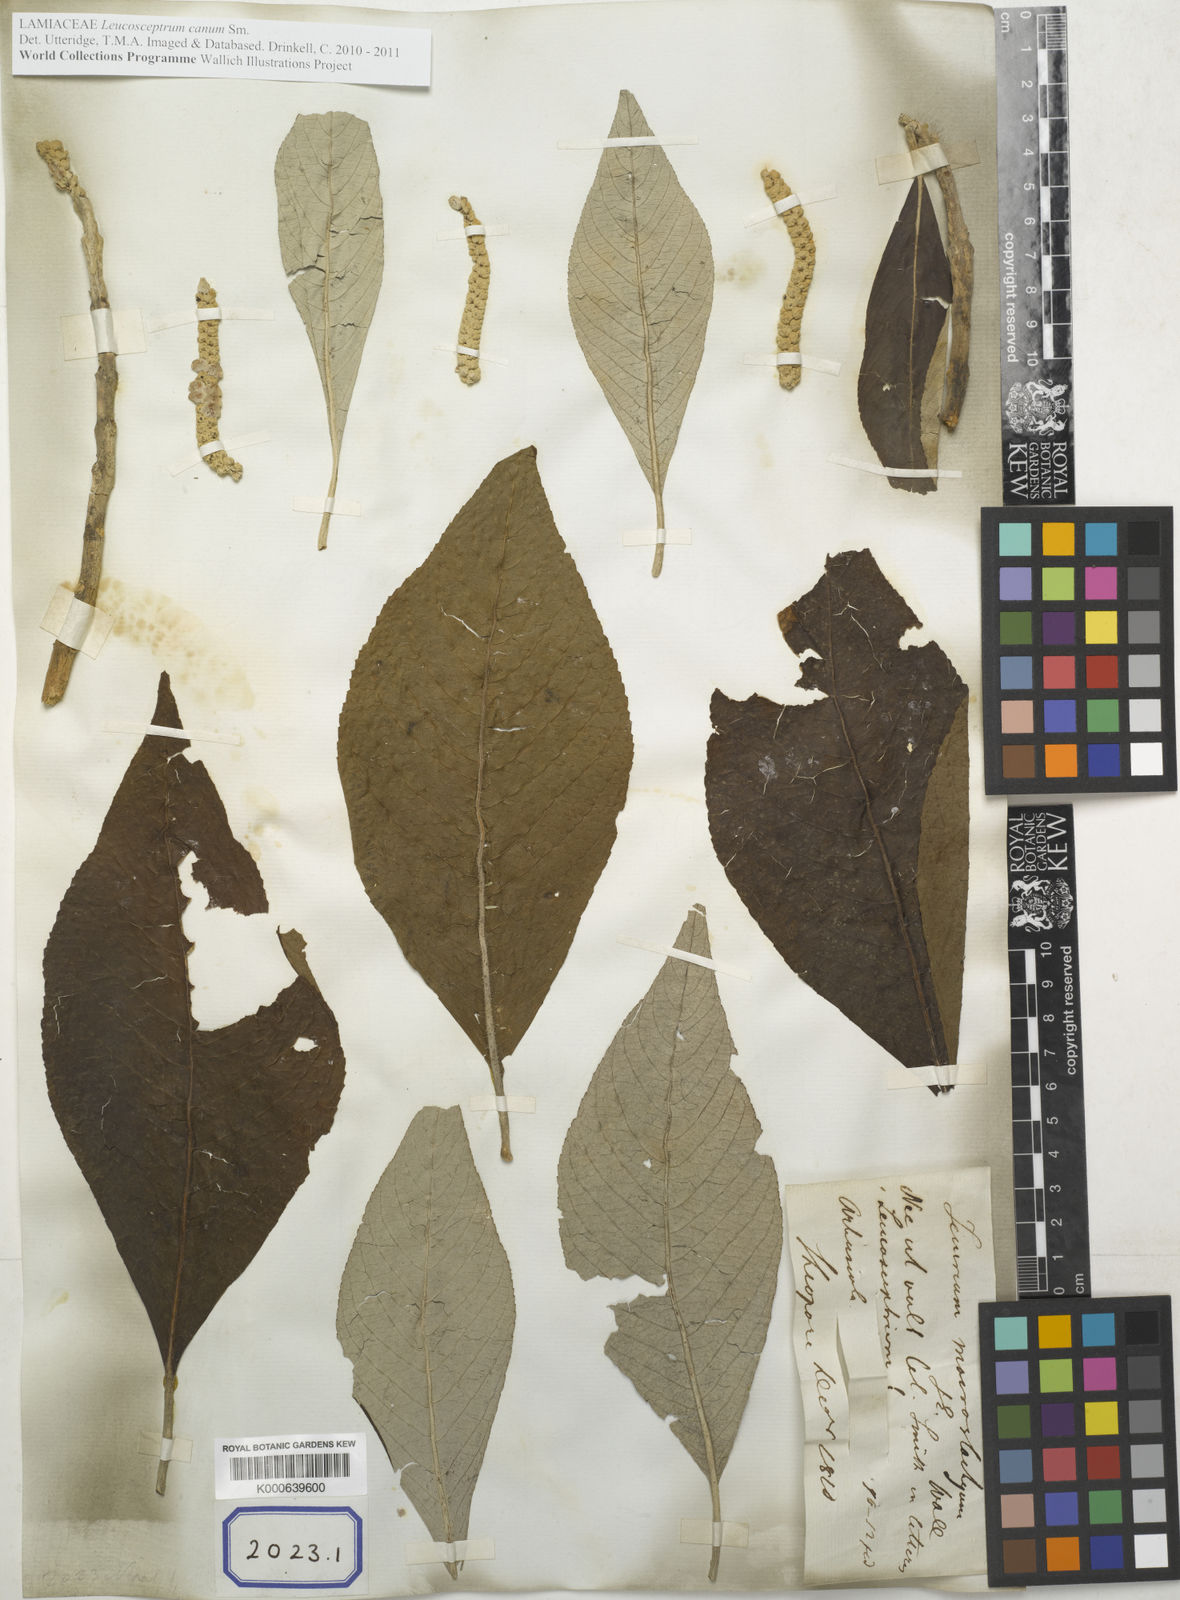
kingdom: Plantae
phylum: Tracheophyta
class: Magnoliopsida
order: Lamiales
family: Lamiaceae
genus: Leucosceptrum
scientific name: Leucosceptrum canum
